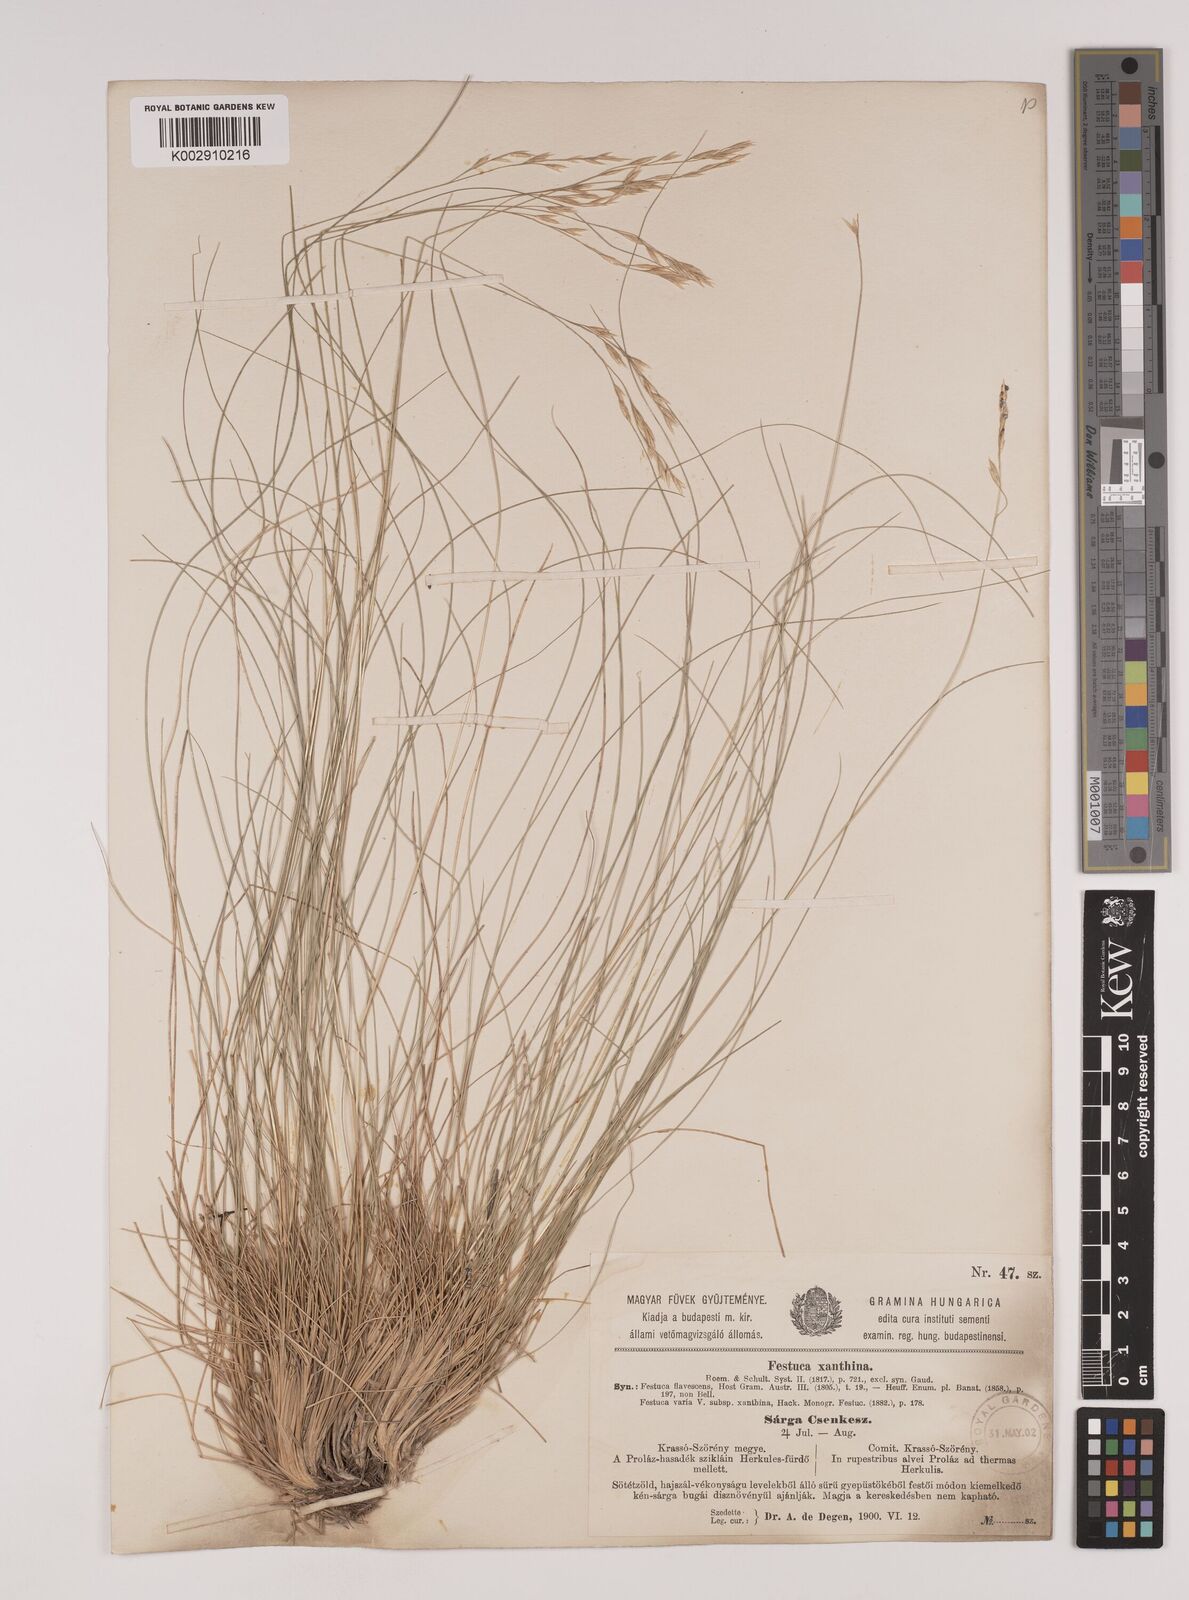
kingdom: Plantae
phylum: Tracheophyta
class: Liliopsida
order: Poales
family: Poaceae
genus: Festuca
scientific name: Festuca xanthina
